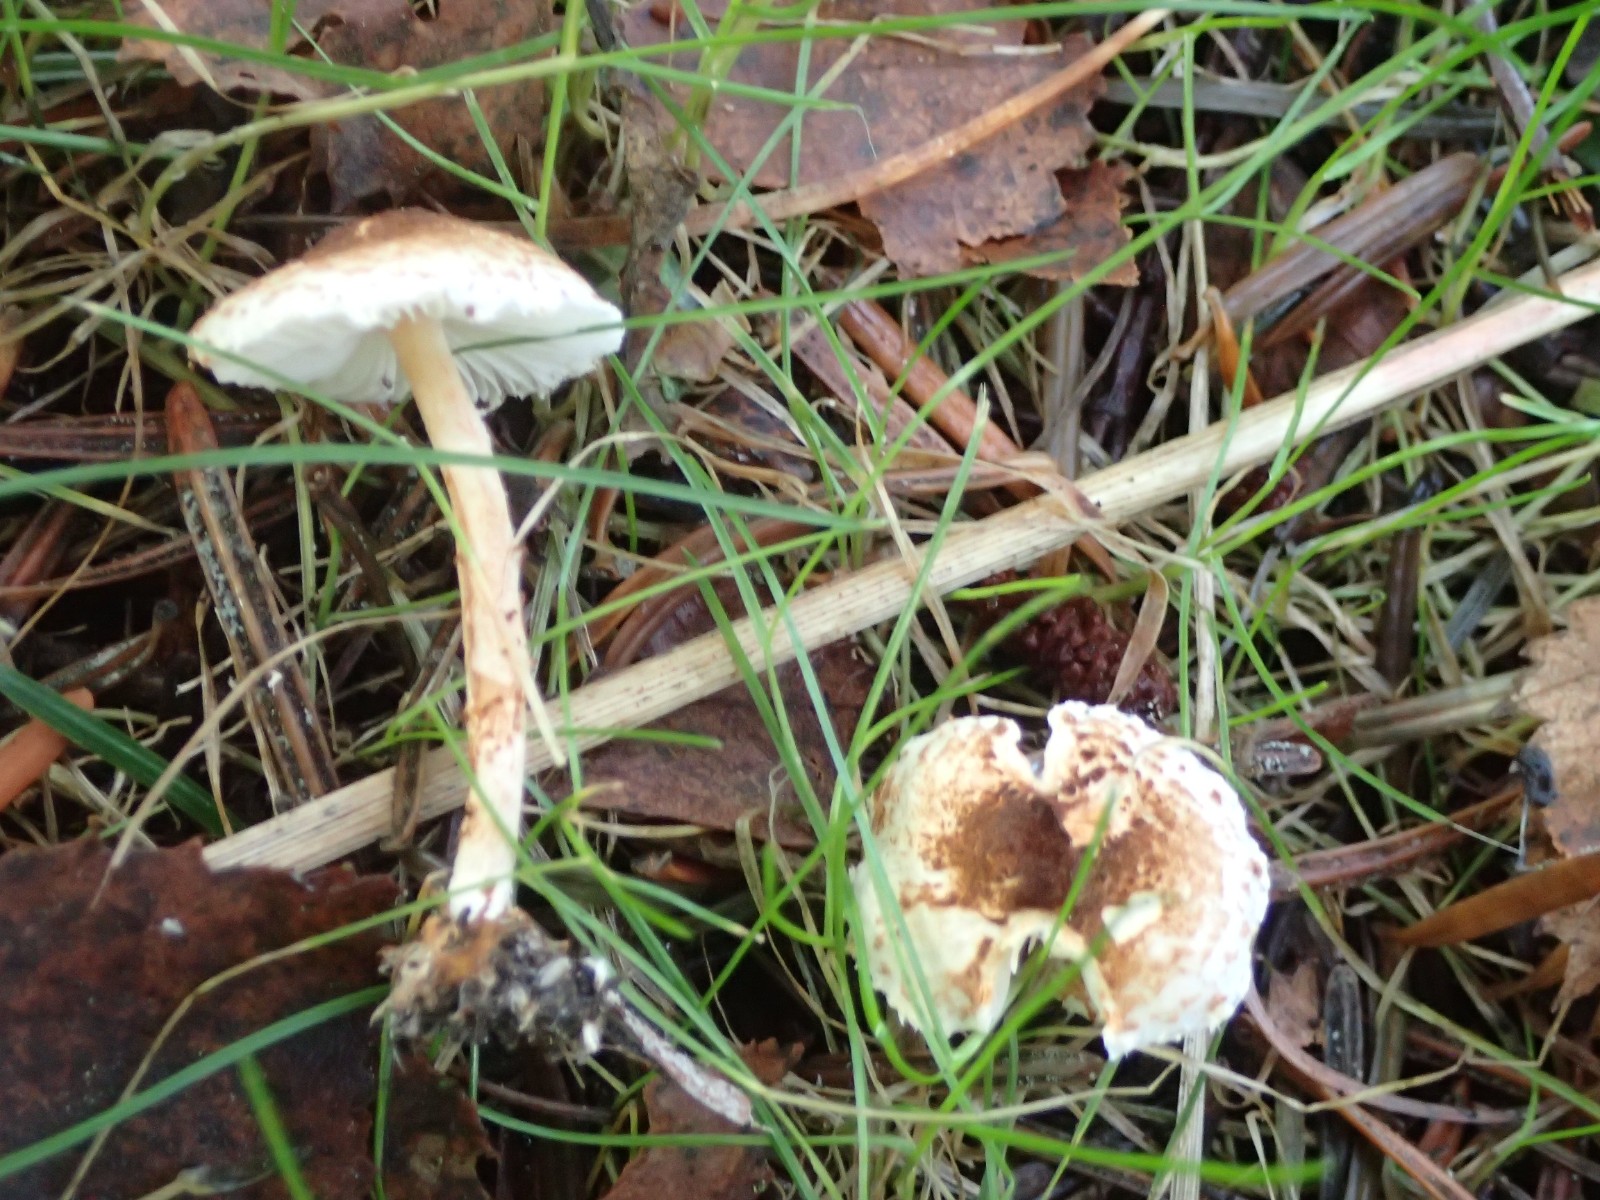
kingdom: Fungi
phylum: Basidiomycota
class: Agaricomycetes
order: Agaricales
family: Agaricaceae
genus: Lepiota
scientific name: Lepiota castanea
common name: kastaniebrun parasolhat
